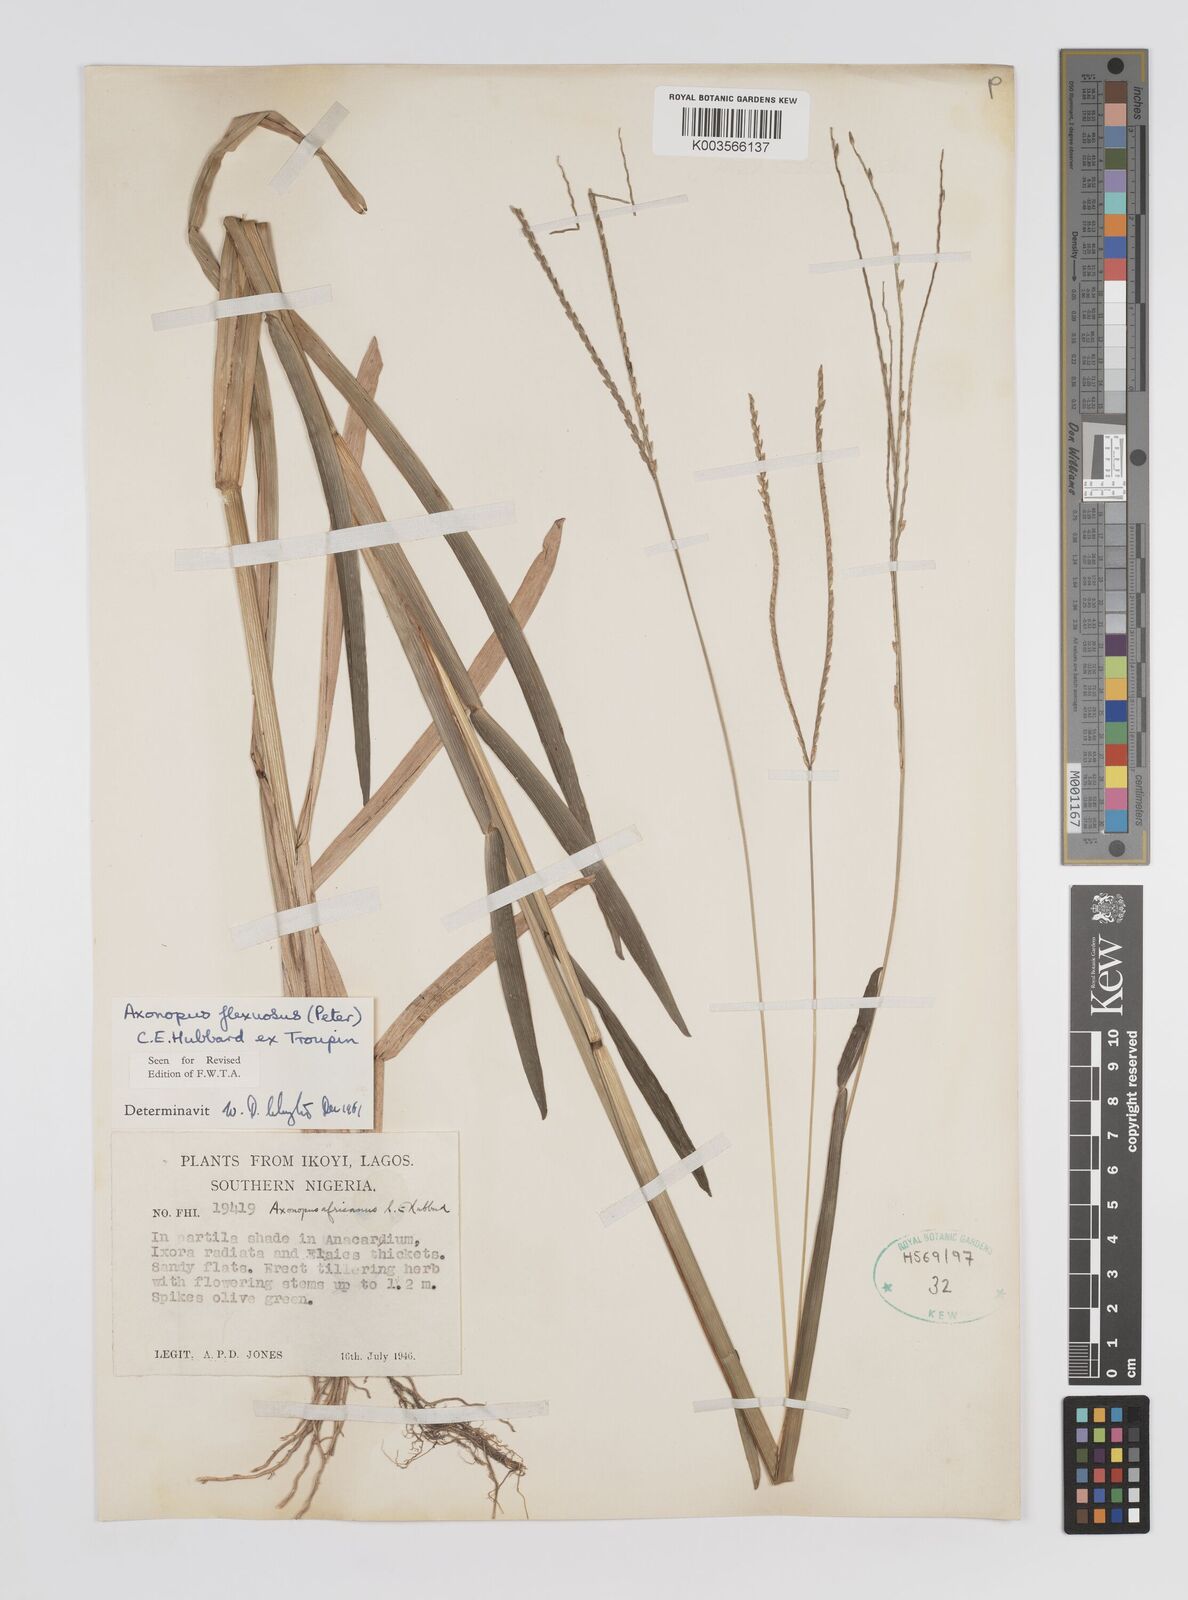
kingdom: Plantae
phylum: Tracheophyta
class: Liliopsida
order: Poales
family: Poaceae
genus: Axonopus
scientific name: Axonopus flexuosus
